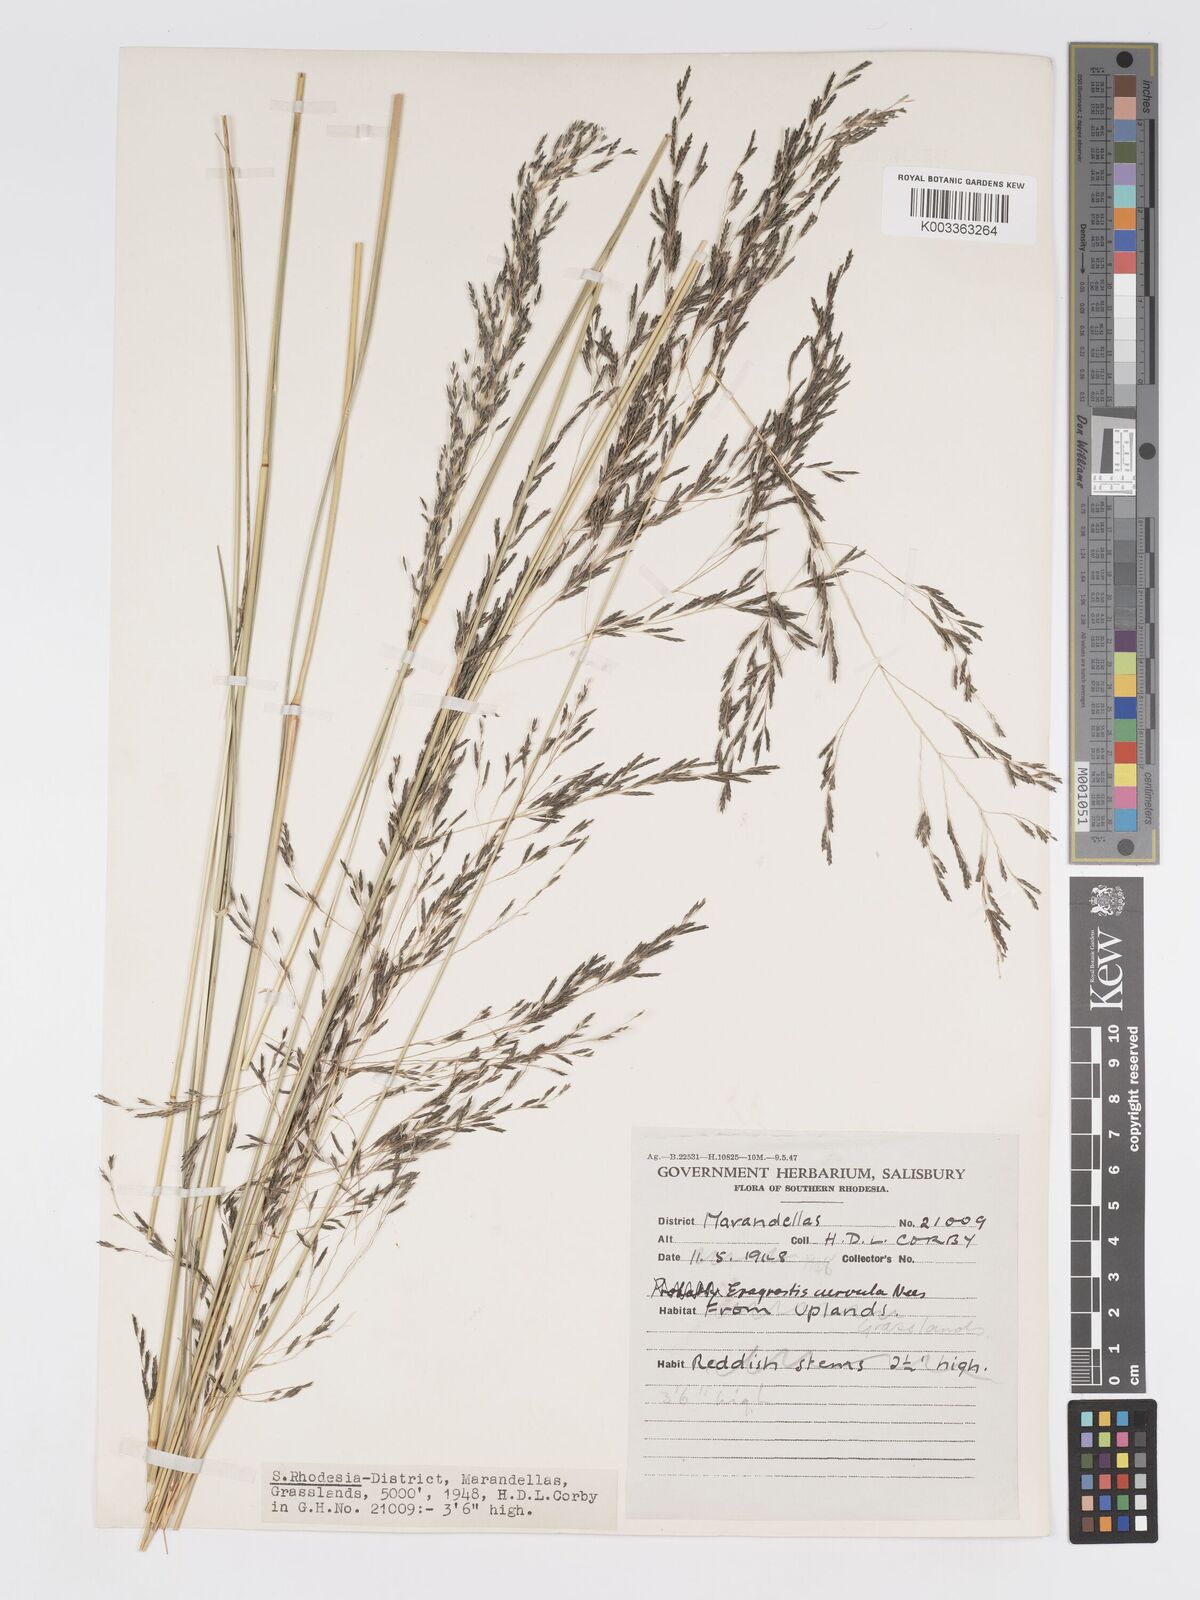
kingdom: Plantae
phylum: Tracheophyta
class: Liliopsida
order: Poales
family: Poaceae
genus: Eragrostis
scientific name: Eragrostis curvula
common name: African love-grass
